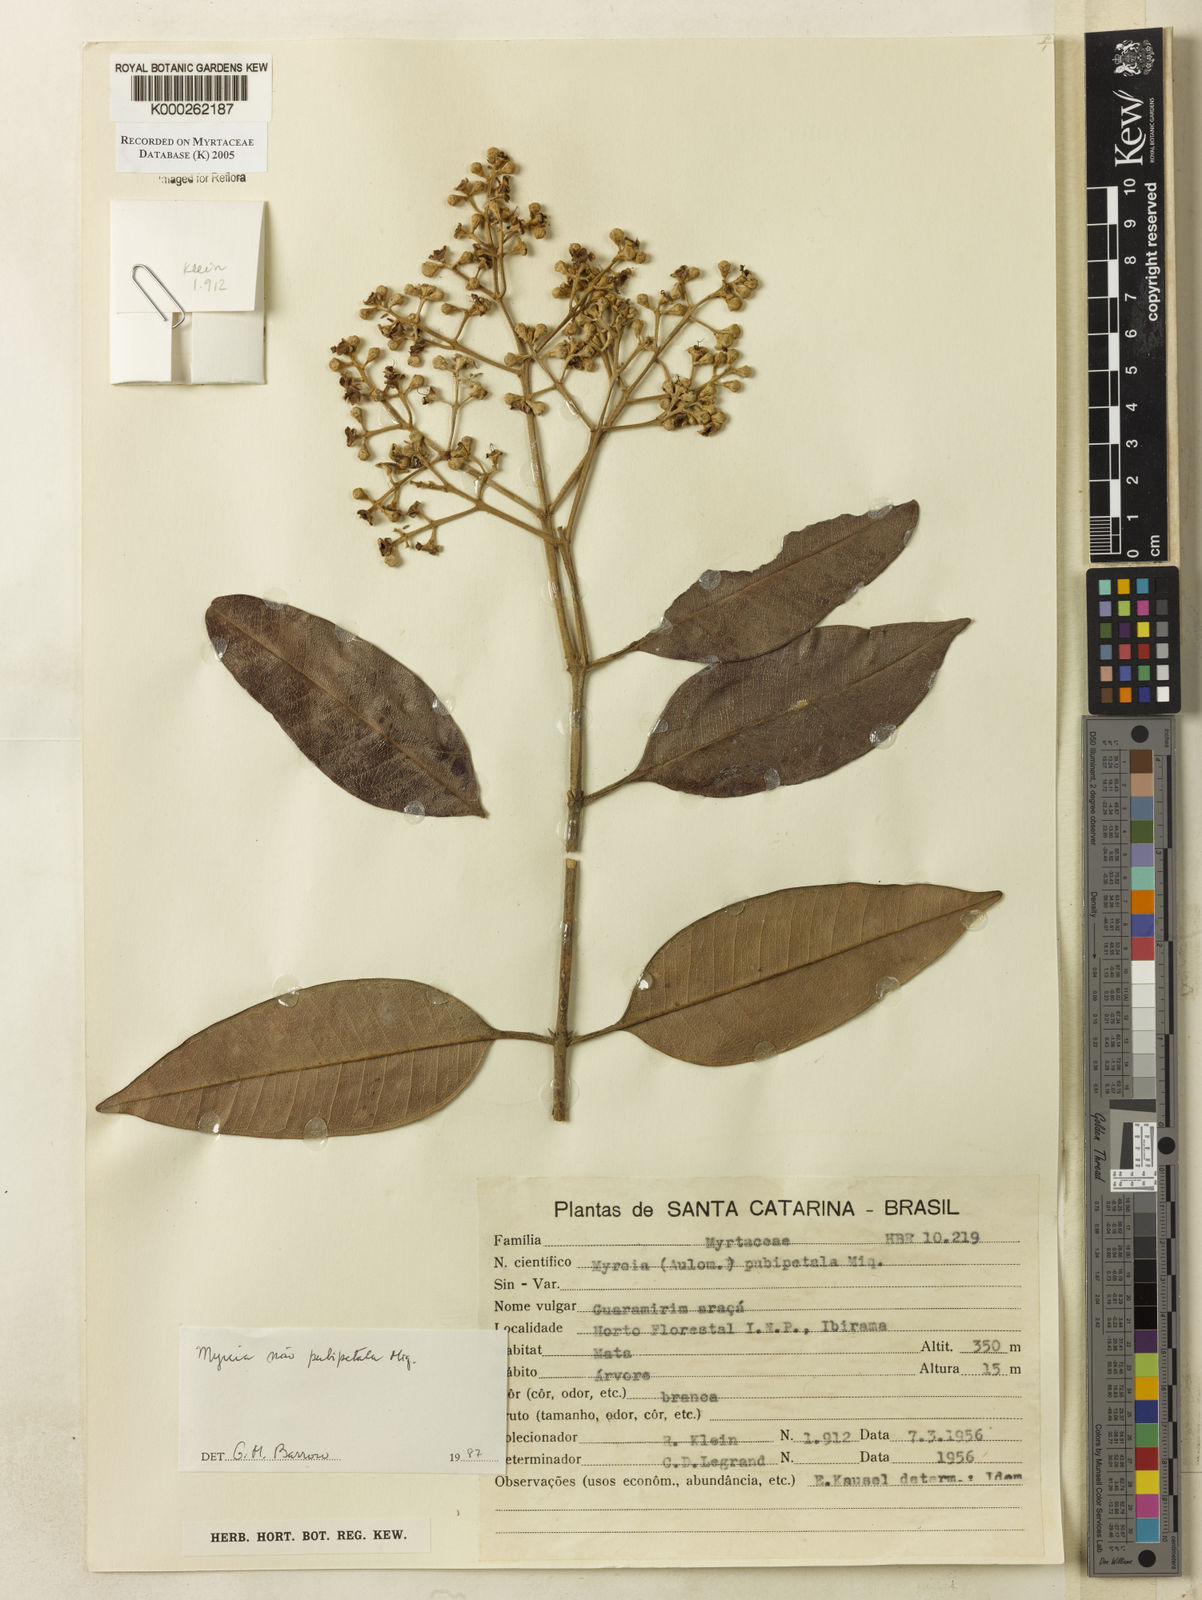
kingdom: Plantae
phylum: Tracheophyta
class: Magnoliopsida
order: Myrtales
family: Myrtaceae
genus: Myrcia
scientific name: Myrcia pubipetala
